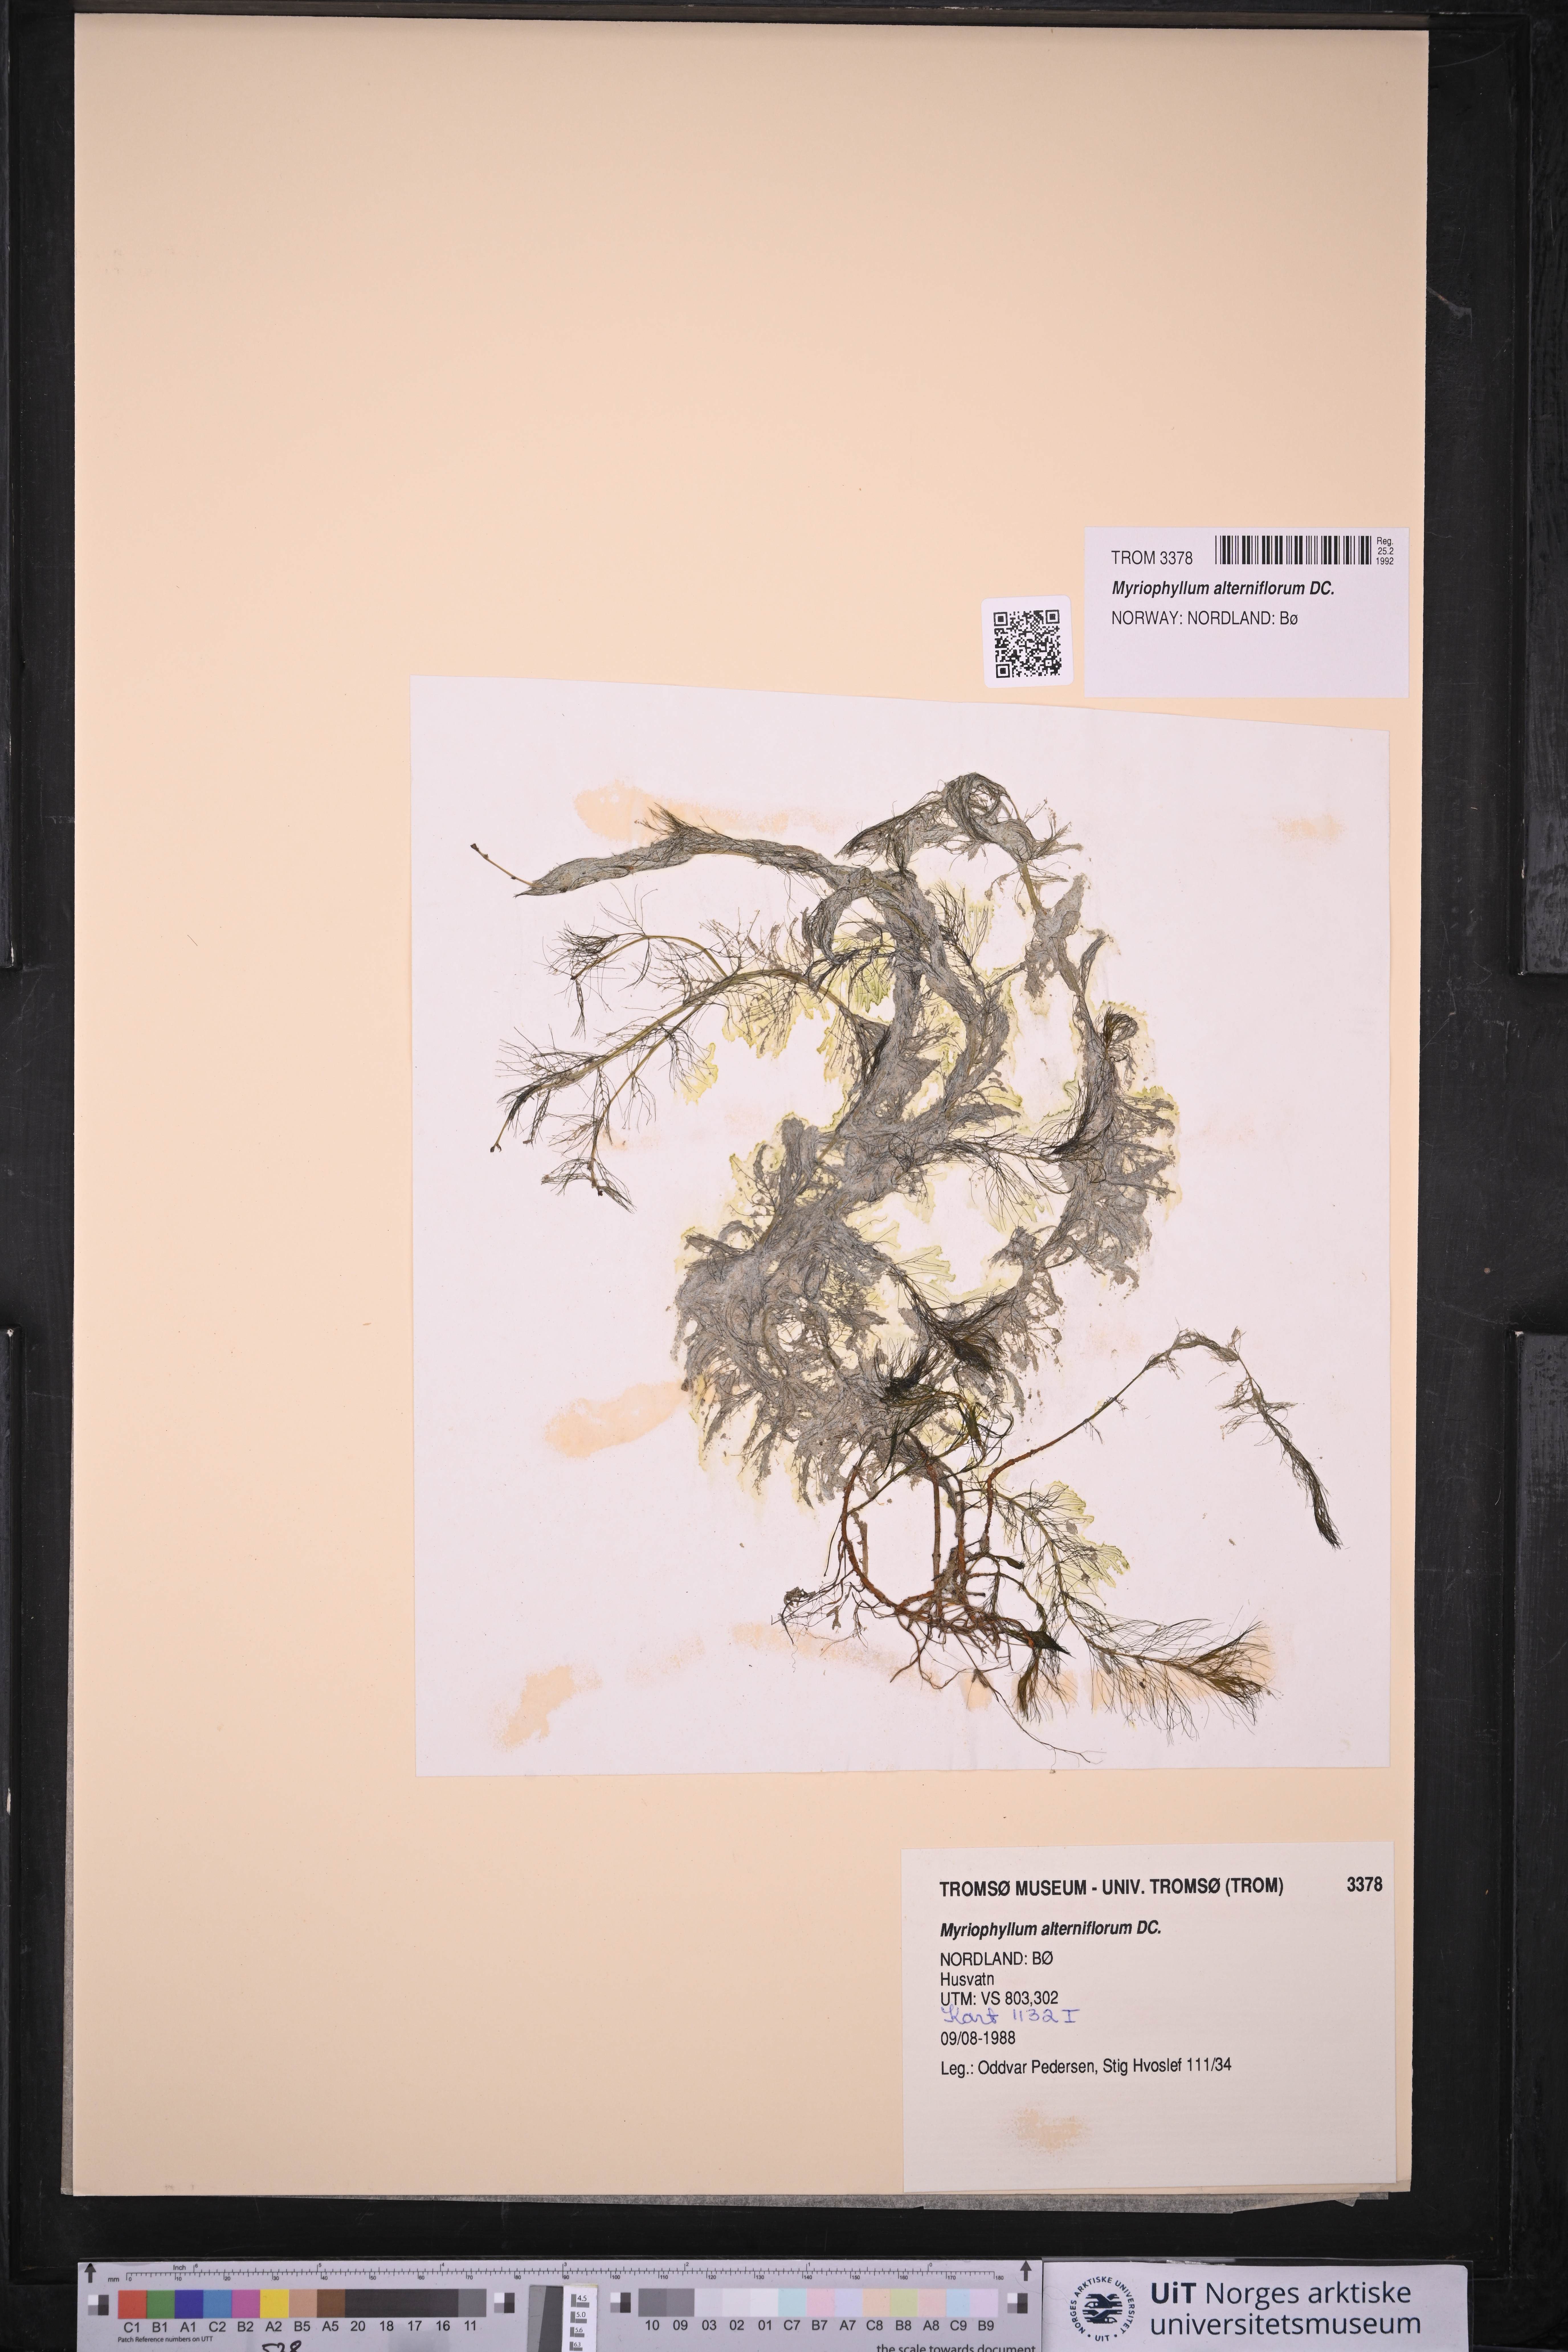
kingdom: Plantae
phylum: Tracheophyta
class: Magnoliopsida
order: Saxifragales
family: Haloragaceae
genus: Myriophyllum
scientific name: Myriophyllum alterniflorum
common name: Alternate water-milfoil
